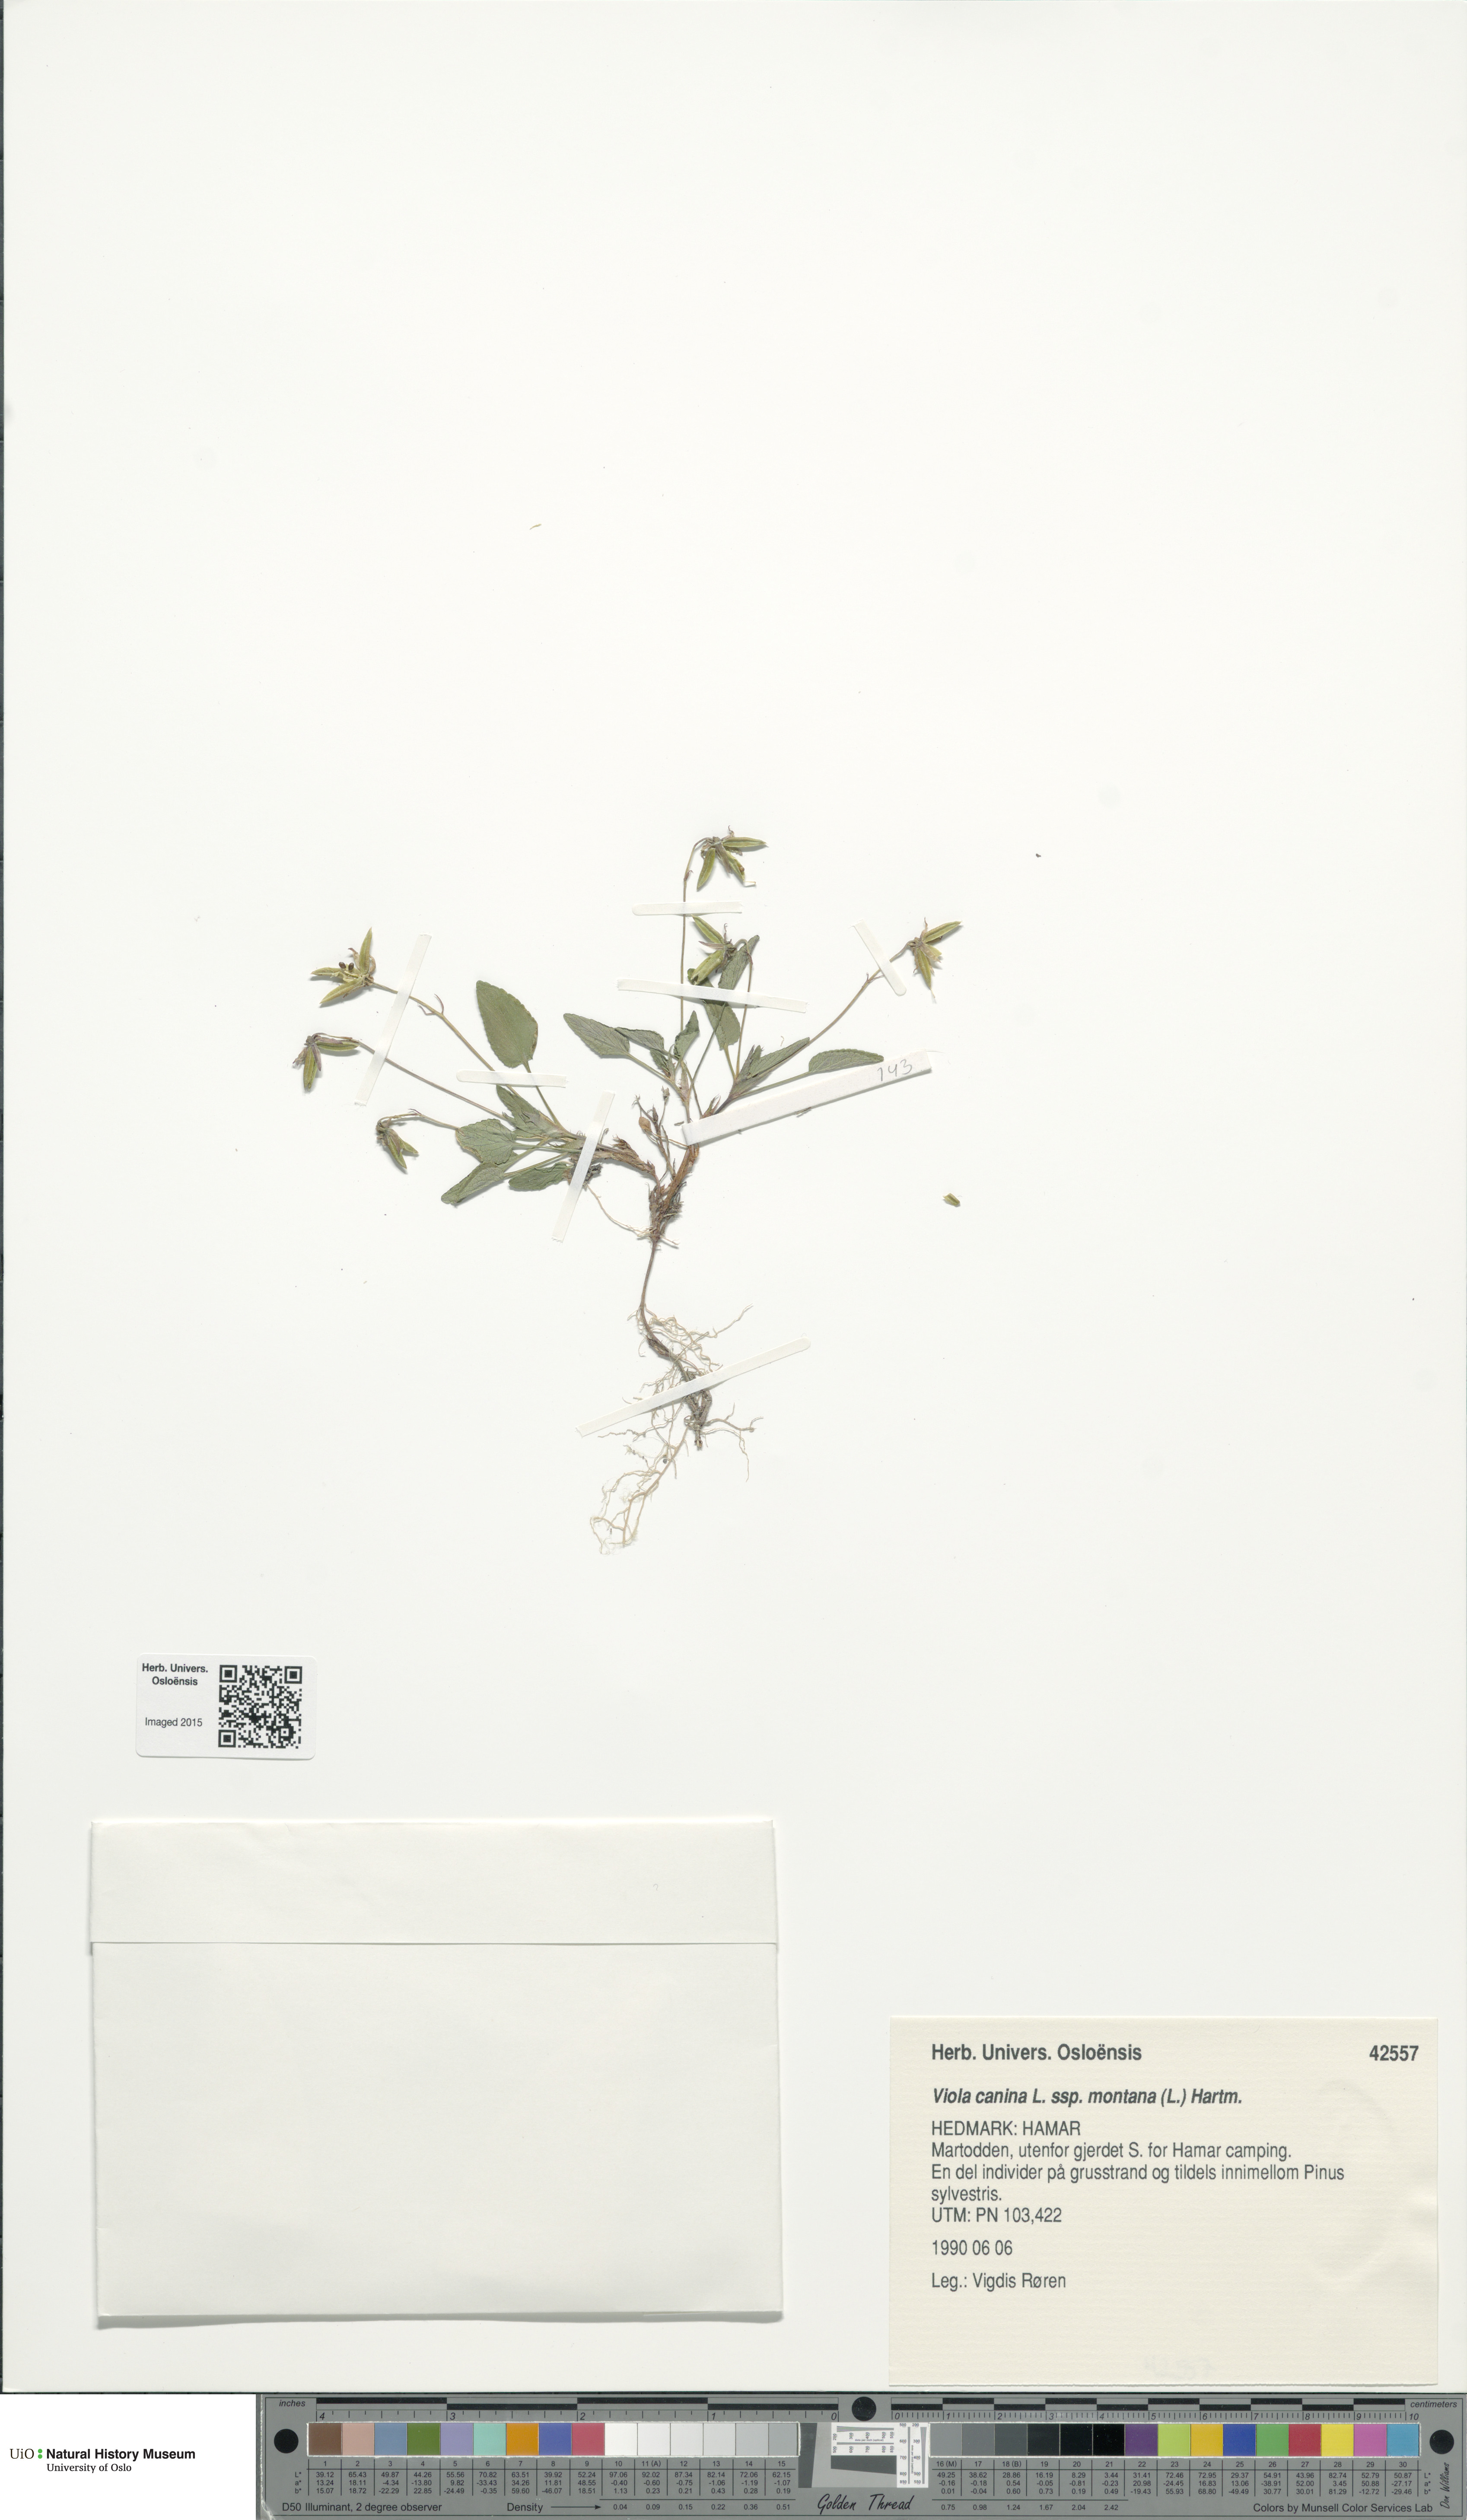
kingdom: Plantae
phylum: Tracheophyta
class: Magnoliopsida
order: Malpighiales
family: Violaceae
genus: Viola
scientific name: Viola ruppii
